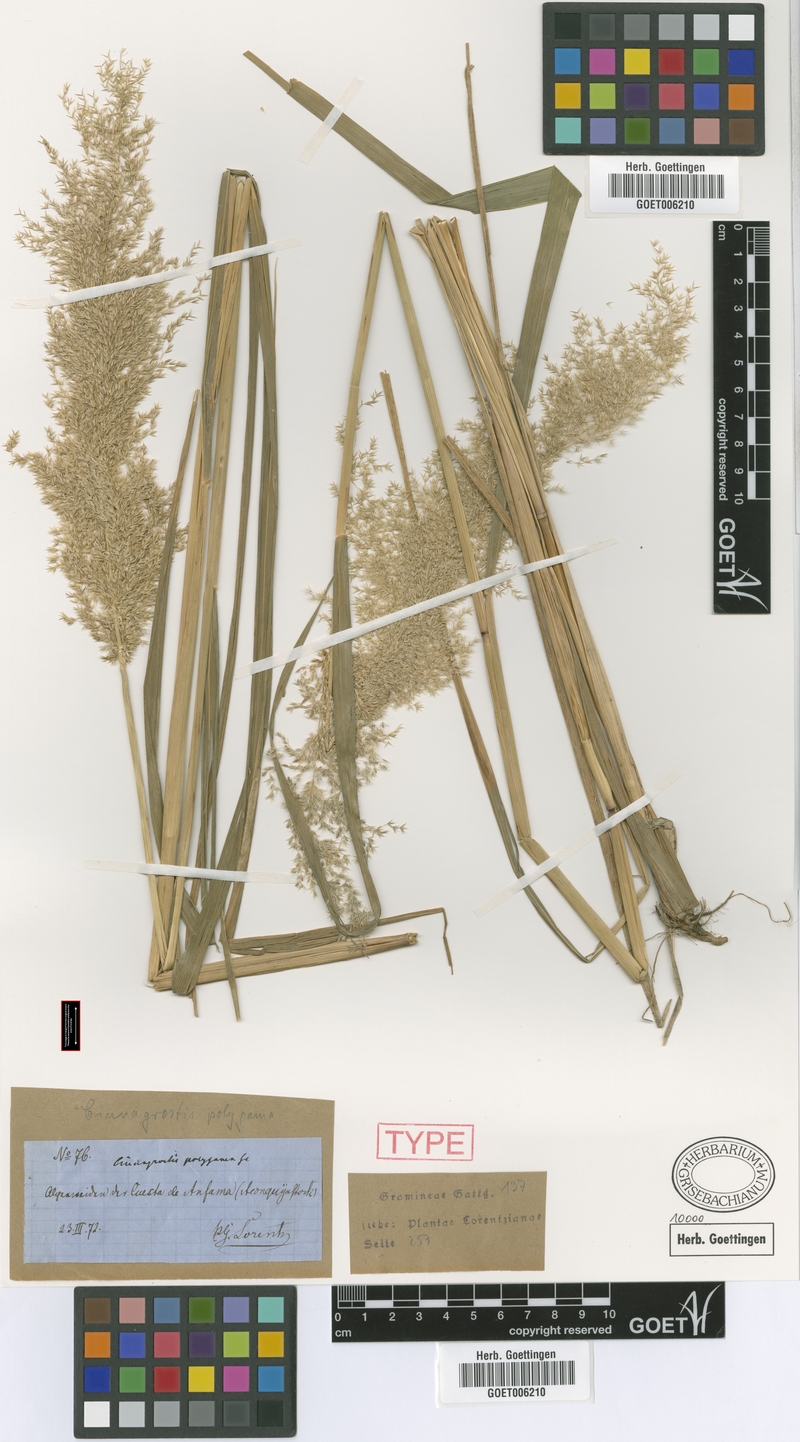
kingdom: Plantae
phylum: Tracheophyta
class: Liliopsida
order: Poales
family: Poaceae
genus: Cinnagrostis
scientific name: Cinnagrostis polygama
